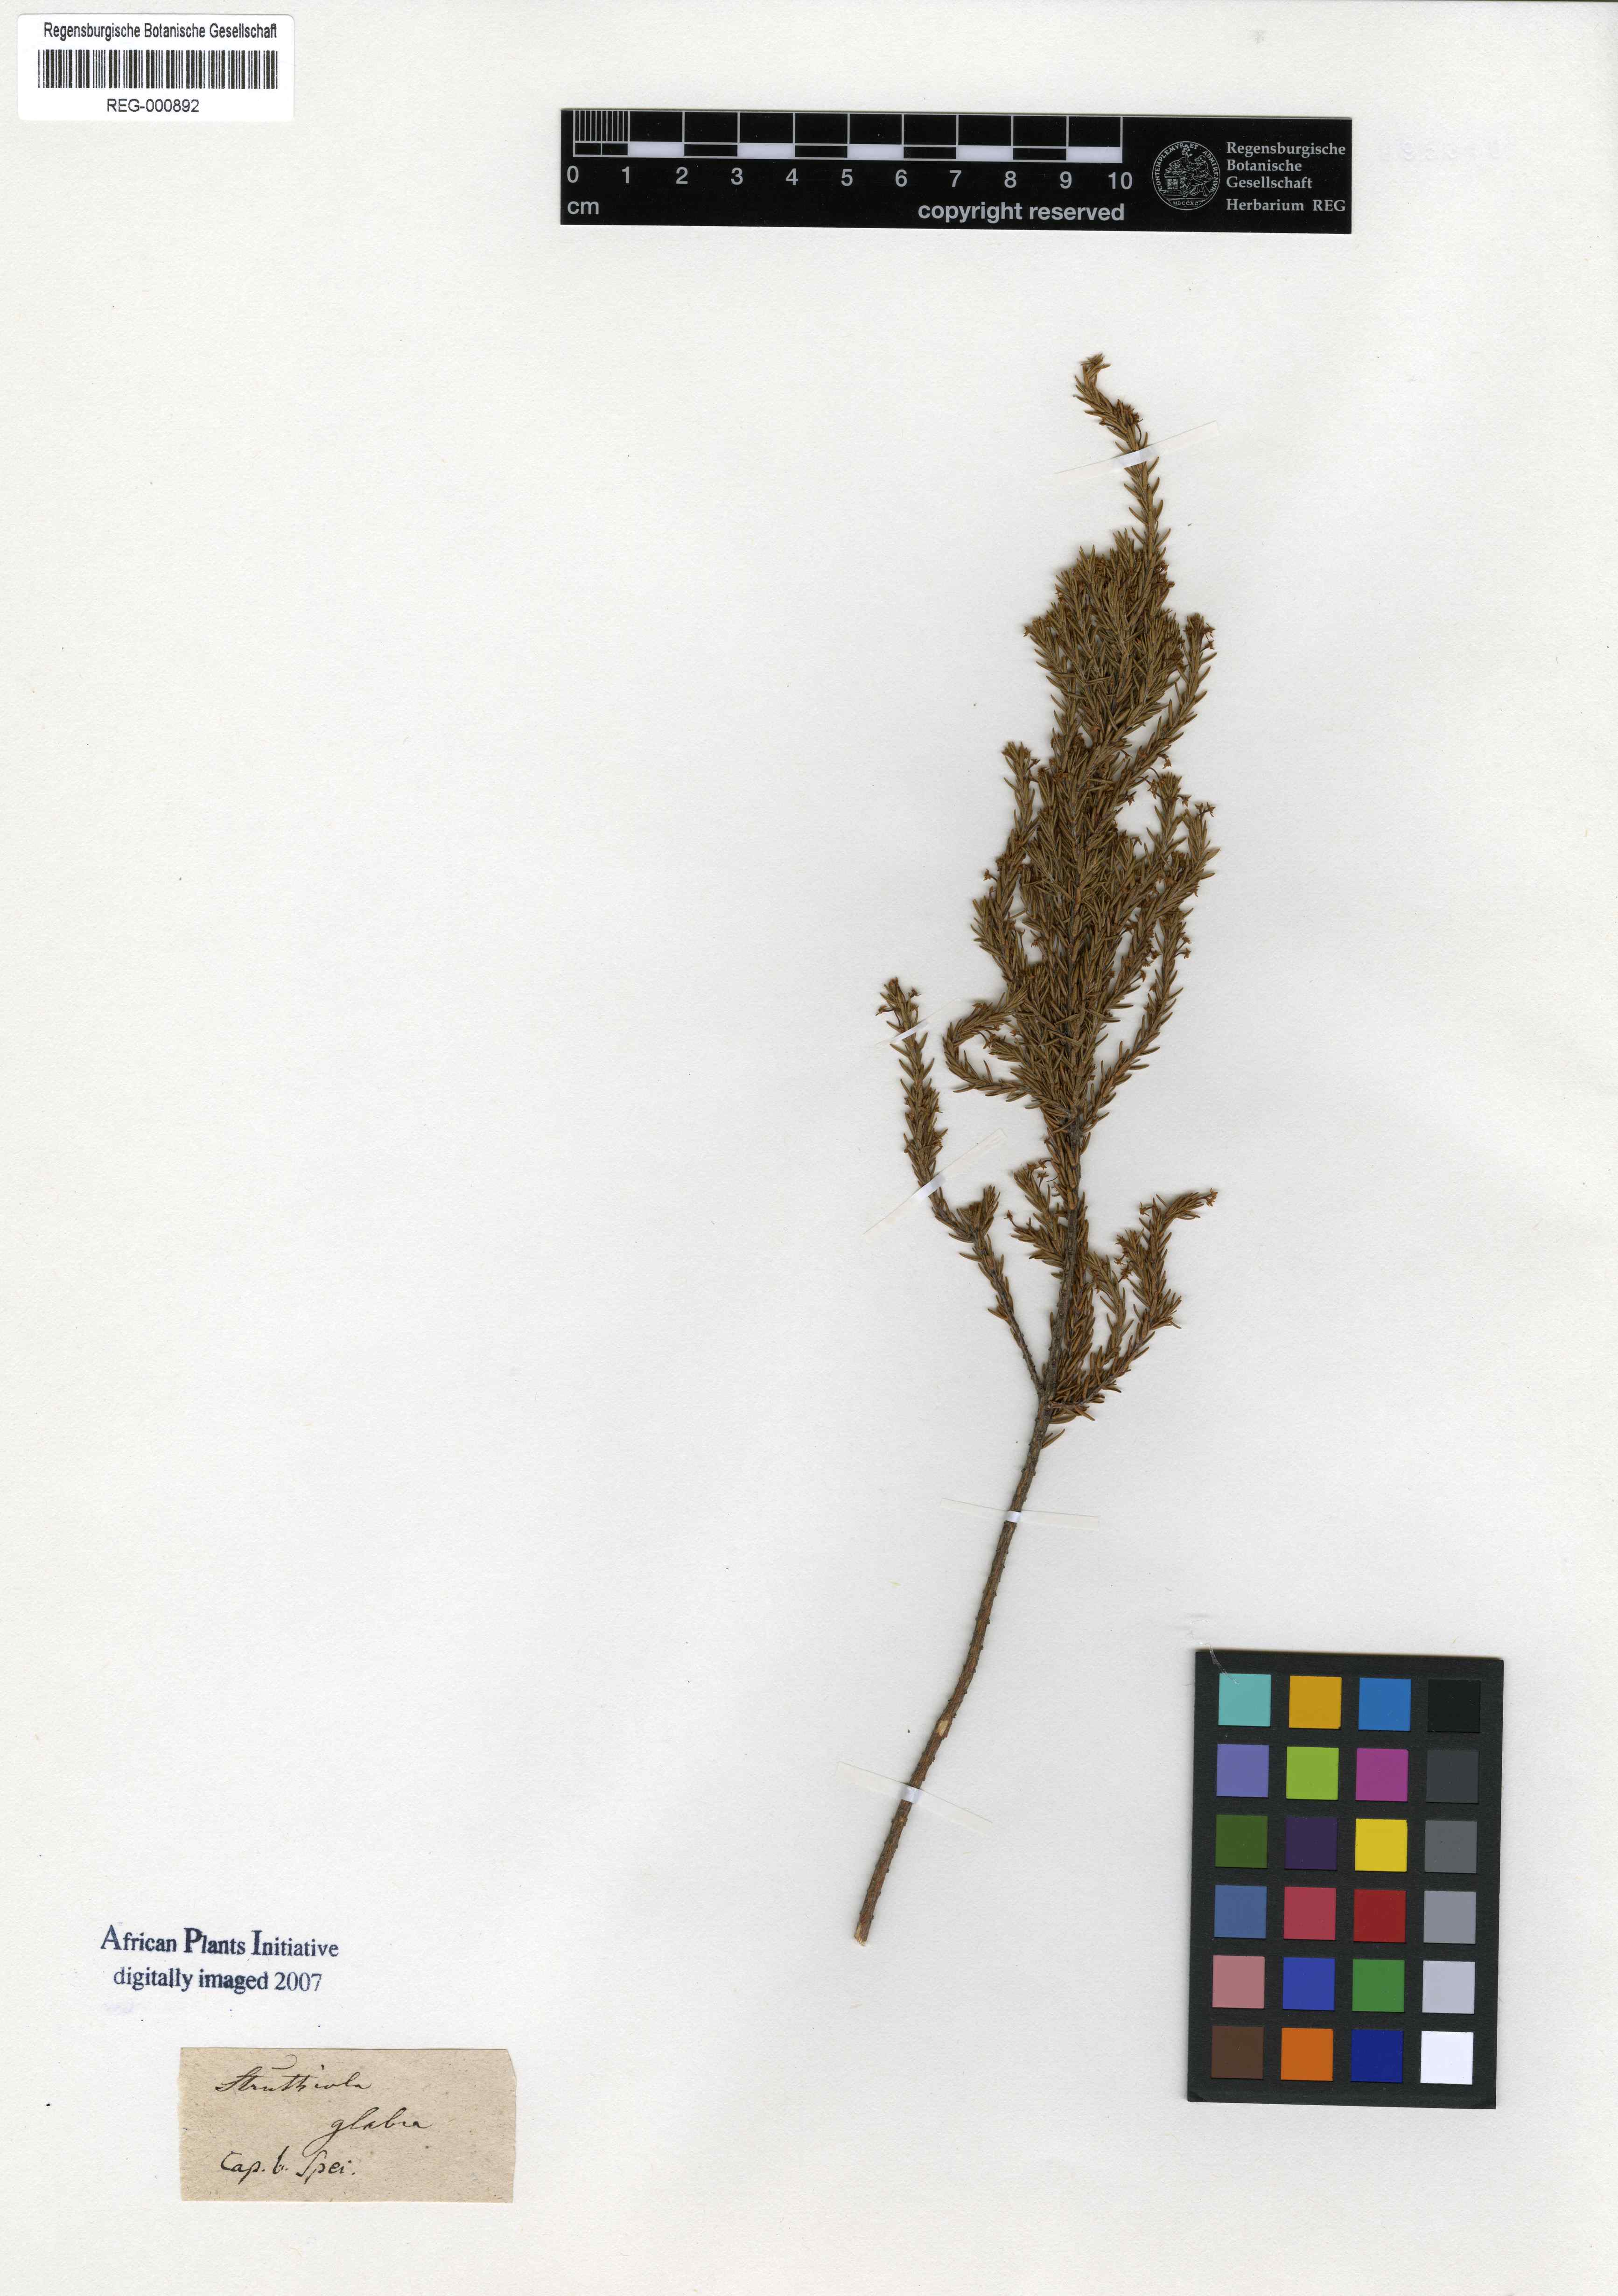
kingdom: Plantae
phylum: Tracheophyta
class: Magnoliopsida
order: Malvales
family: Thymelaeaceae
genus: Struthiola
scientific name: Struthiola dodecandra
